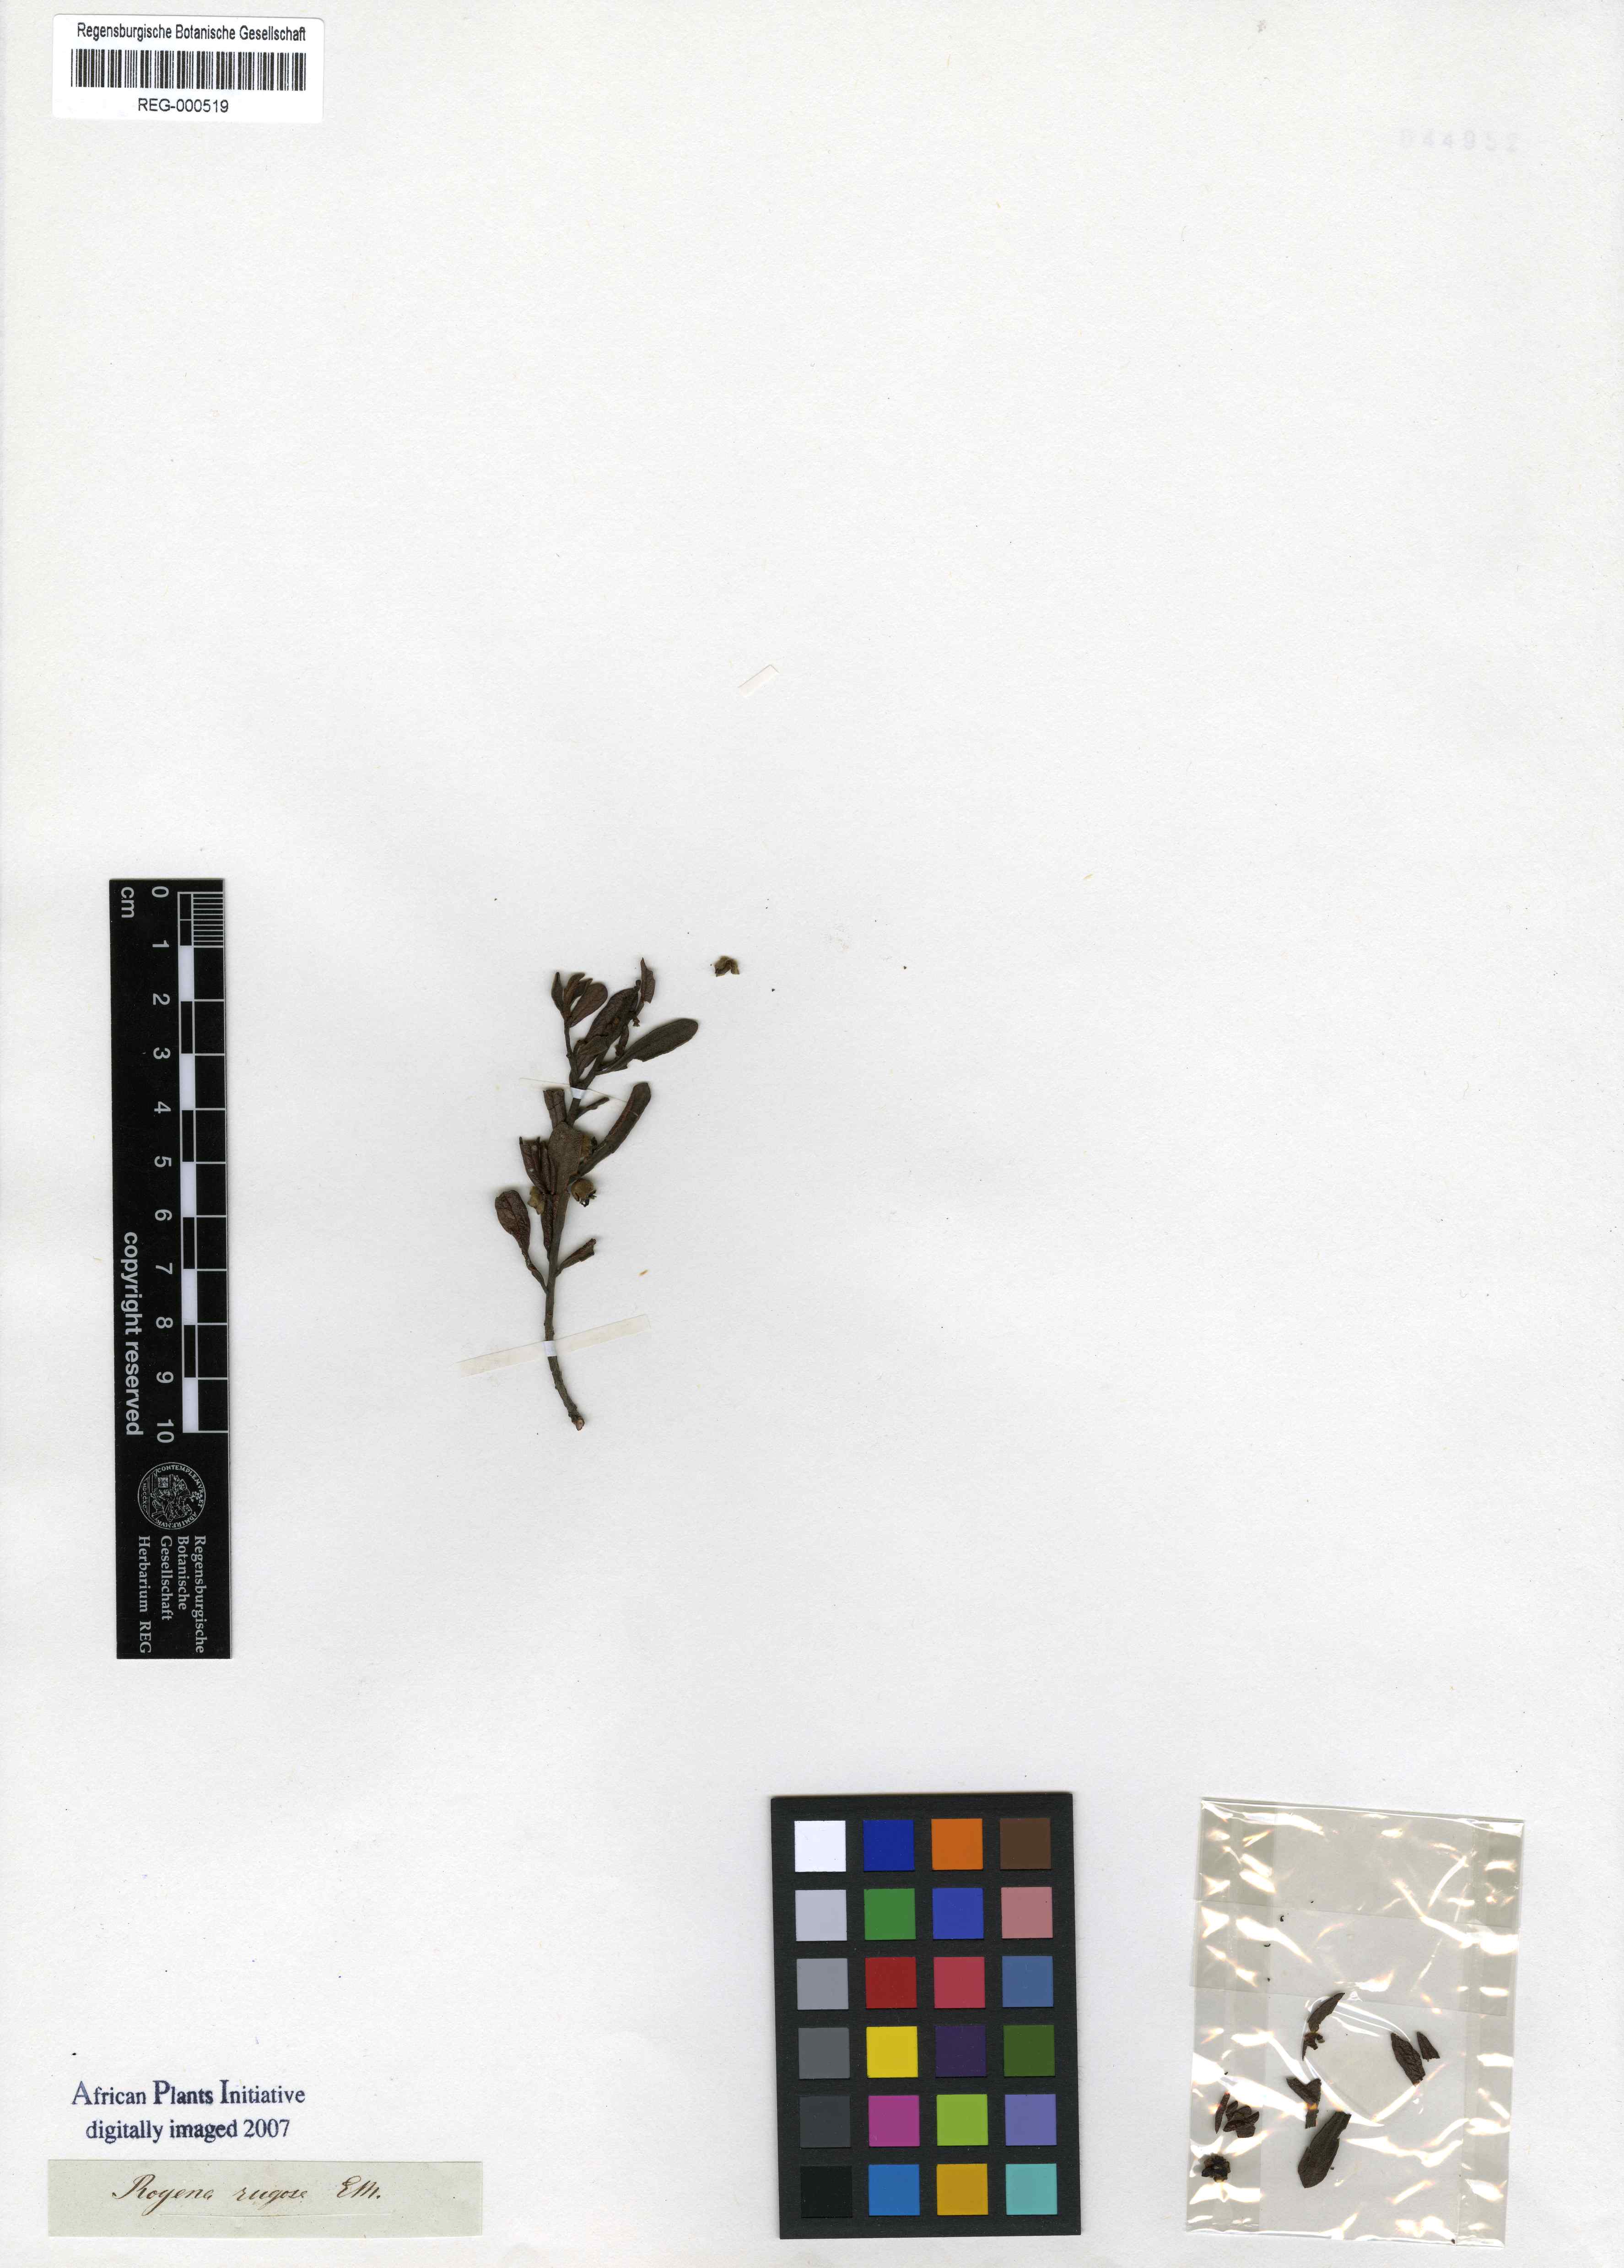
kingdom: Plantae
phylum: Tracheophyta
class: Magnoliopsida
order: Ericales
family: Ebenaceae
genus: Diospyros
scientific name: Diospyros pubescens
